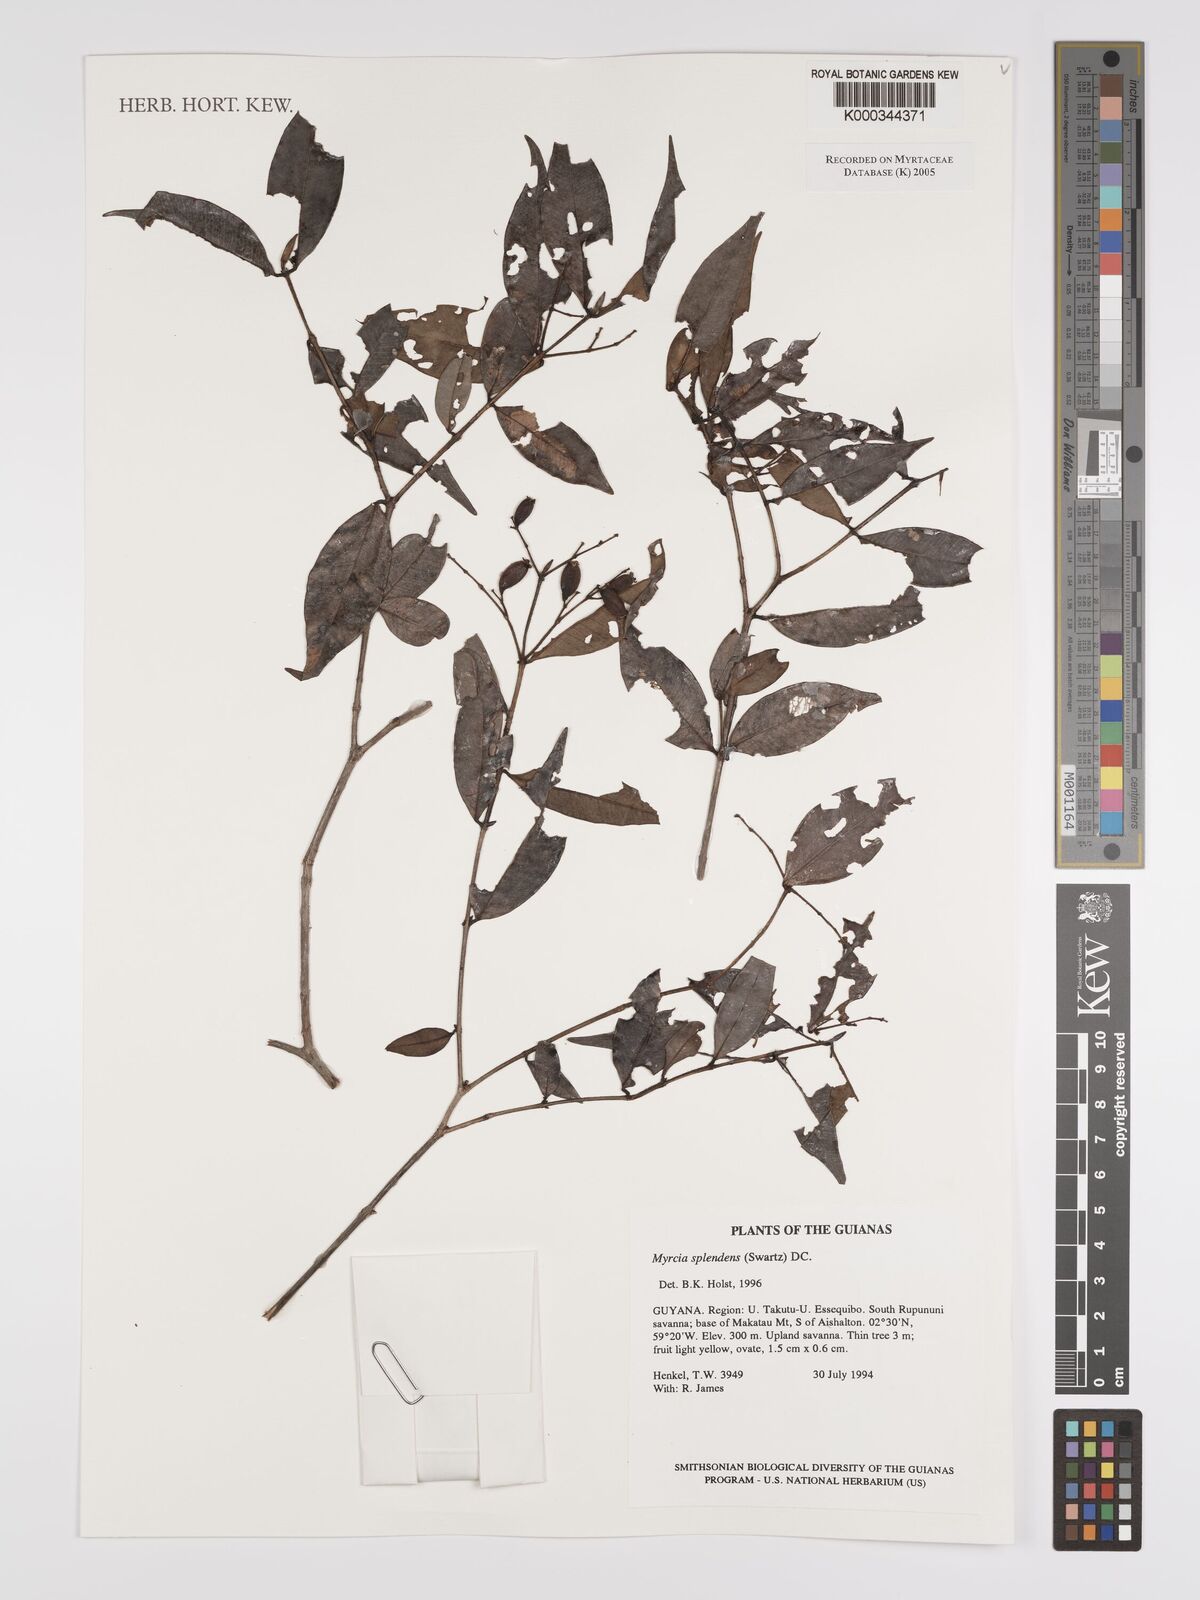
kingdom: Plantae
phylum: Tracheophyta
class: Magnoliopsida
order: Myrtales
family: Myrtaceae
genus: Myrcia
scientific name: Myrcia splendens
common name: Surinam cherry
